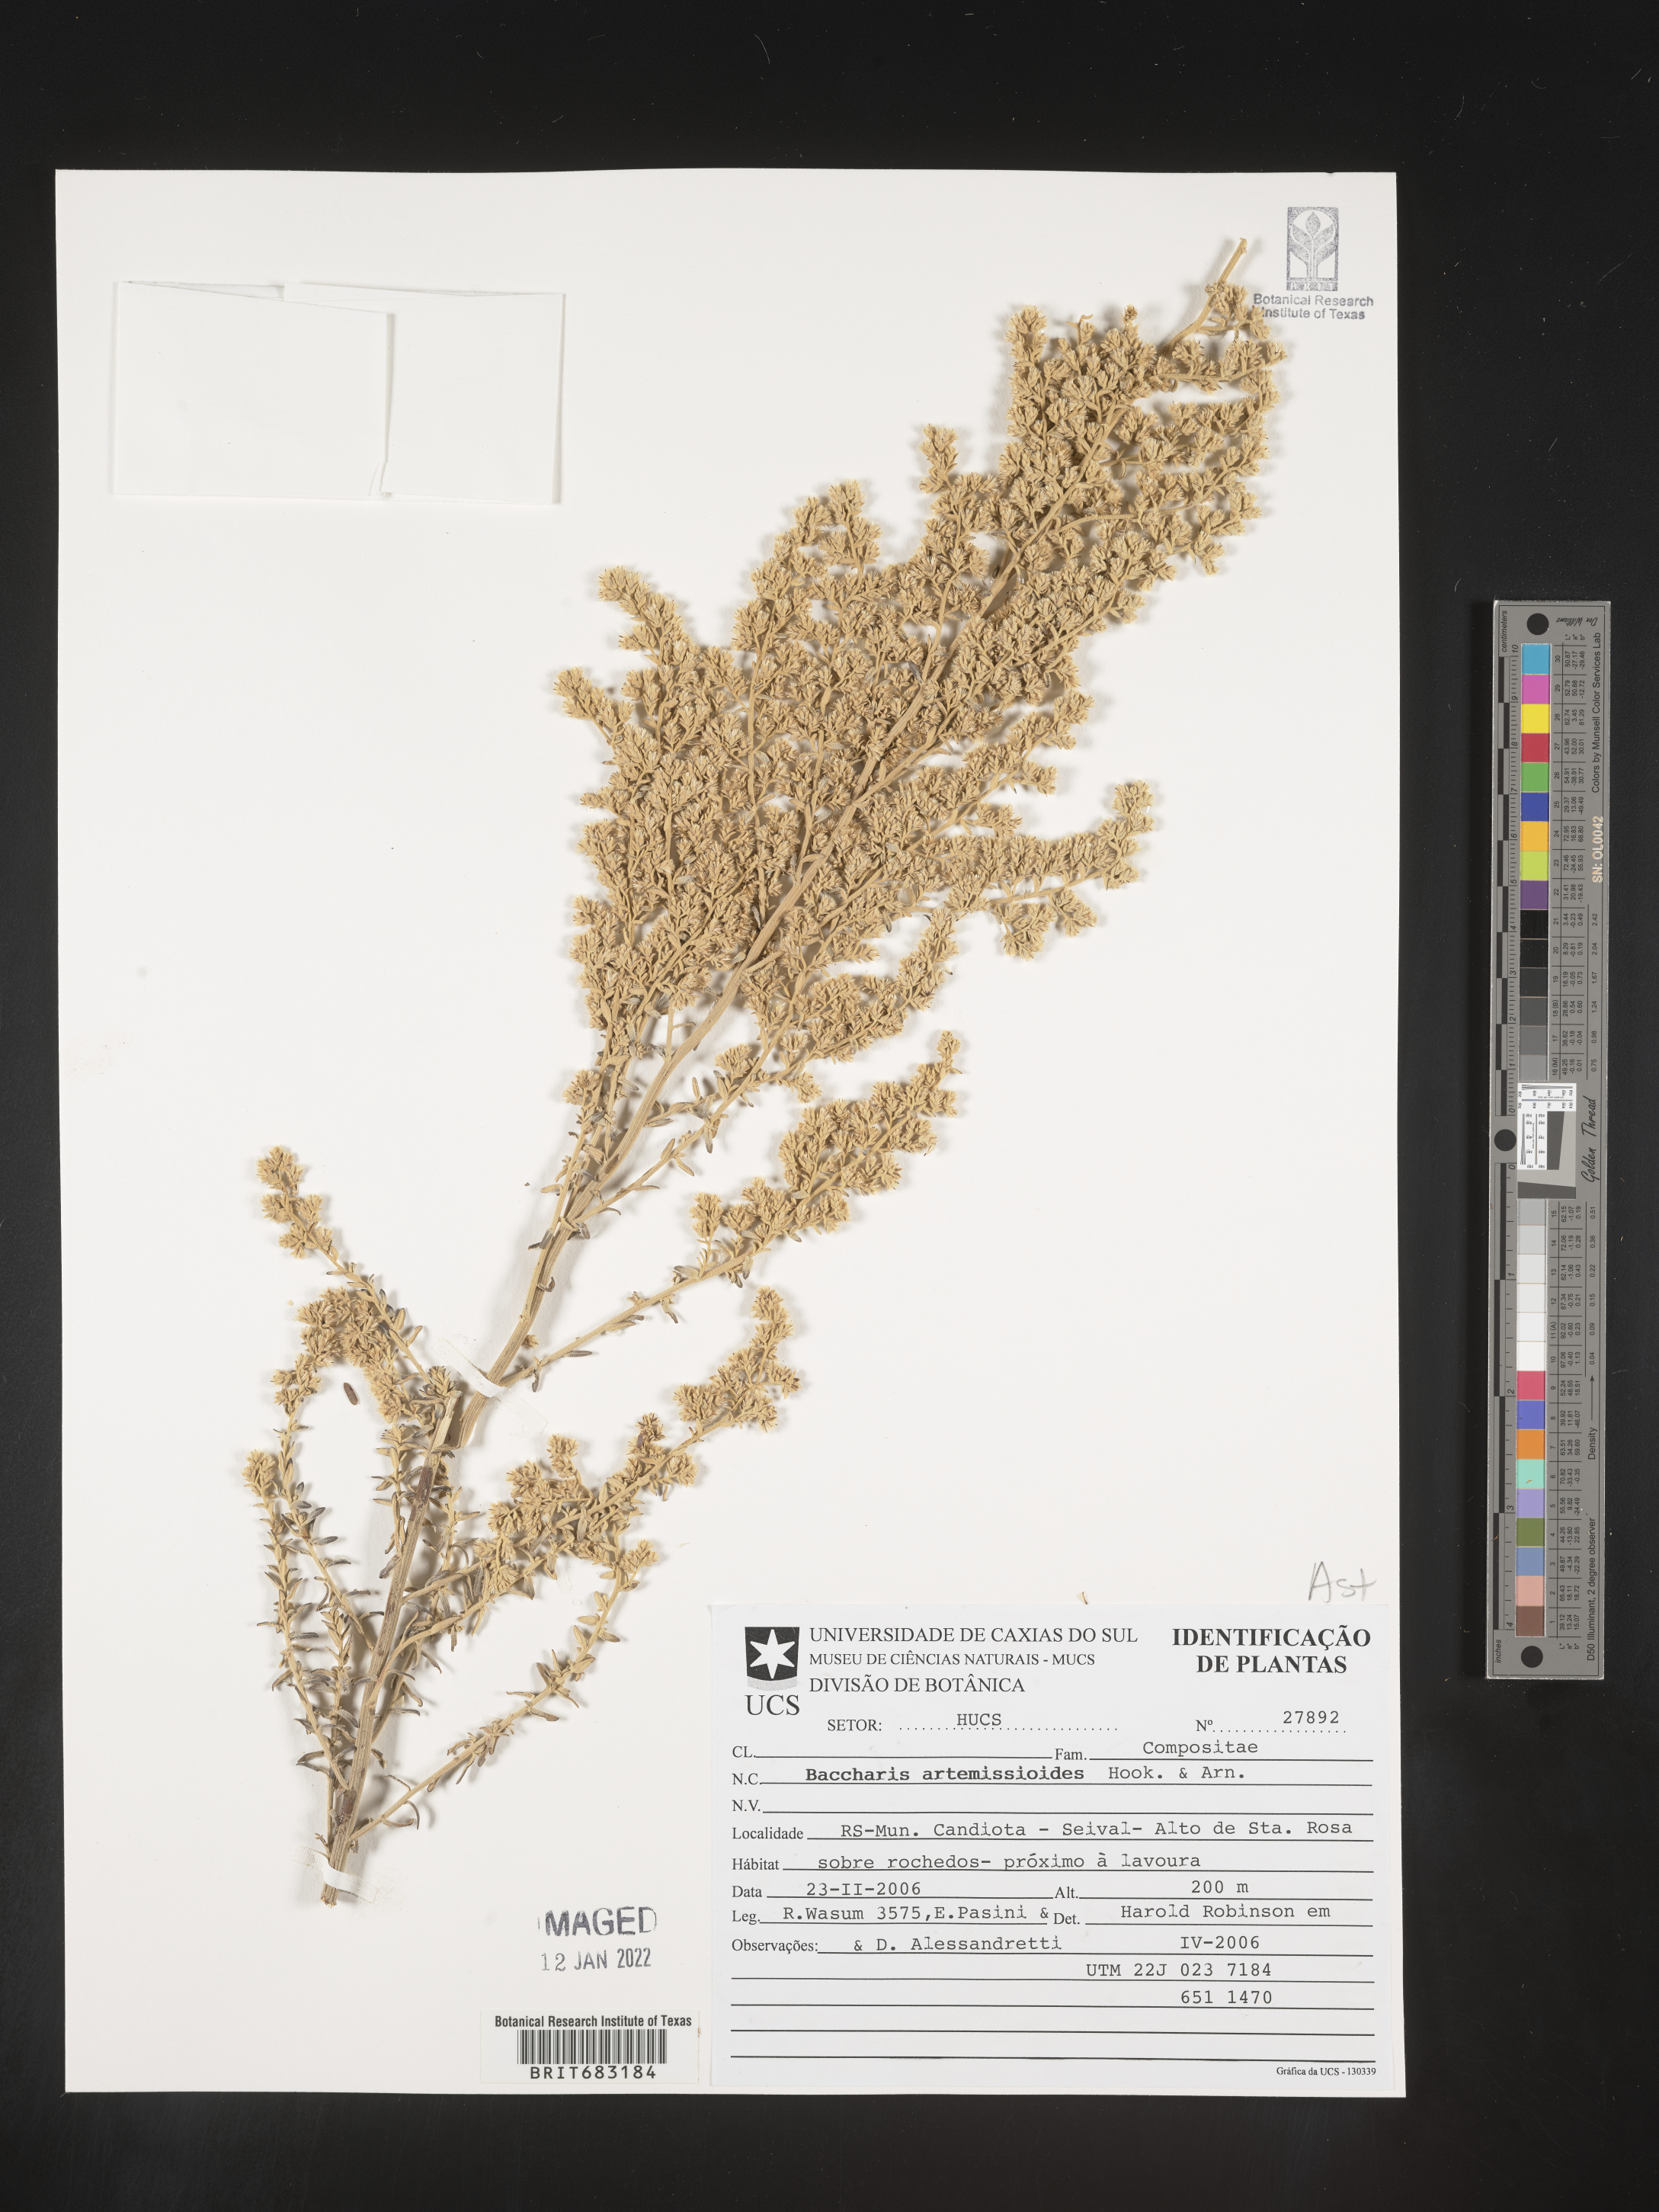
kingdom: Plantae
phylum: Tracheophyta
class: Magnoliopsida
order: Asterales
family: Asteraceae
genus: Baccharis
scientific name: Baccharis
